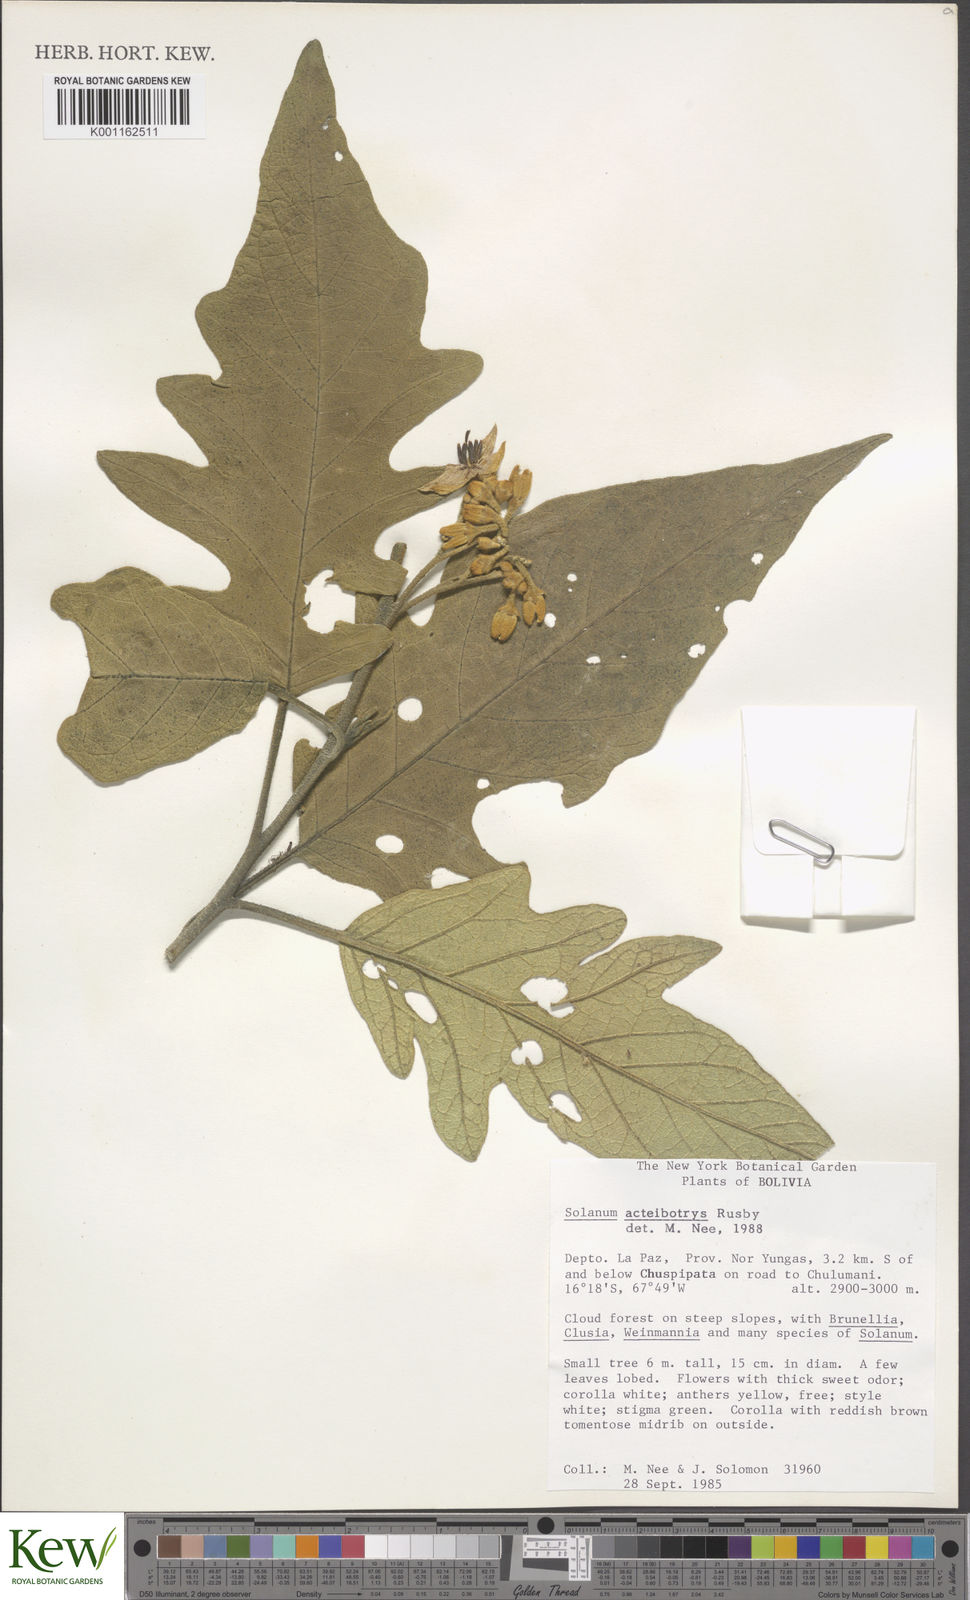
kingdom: Plantae
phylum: Tracheophyta
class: Magnoliopsida
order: Solanales
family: Solanaceae
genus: Solanum
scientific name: Solanum
